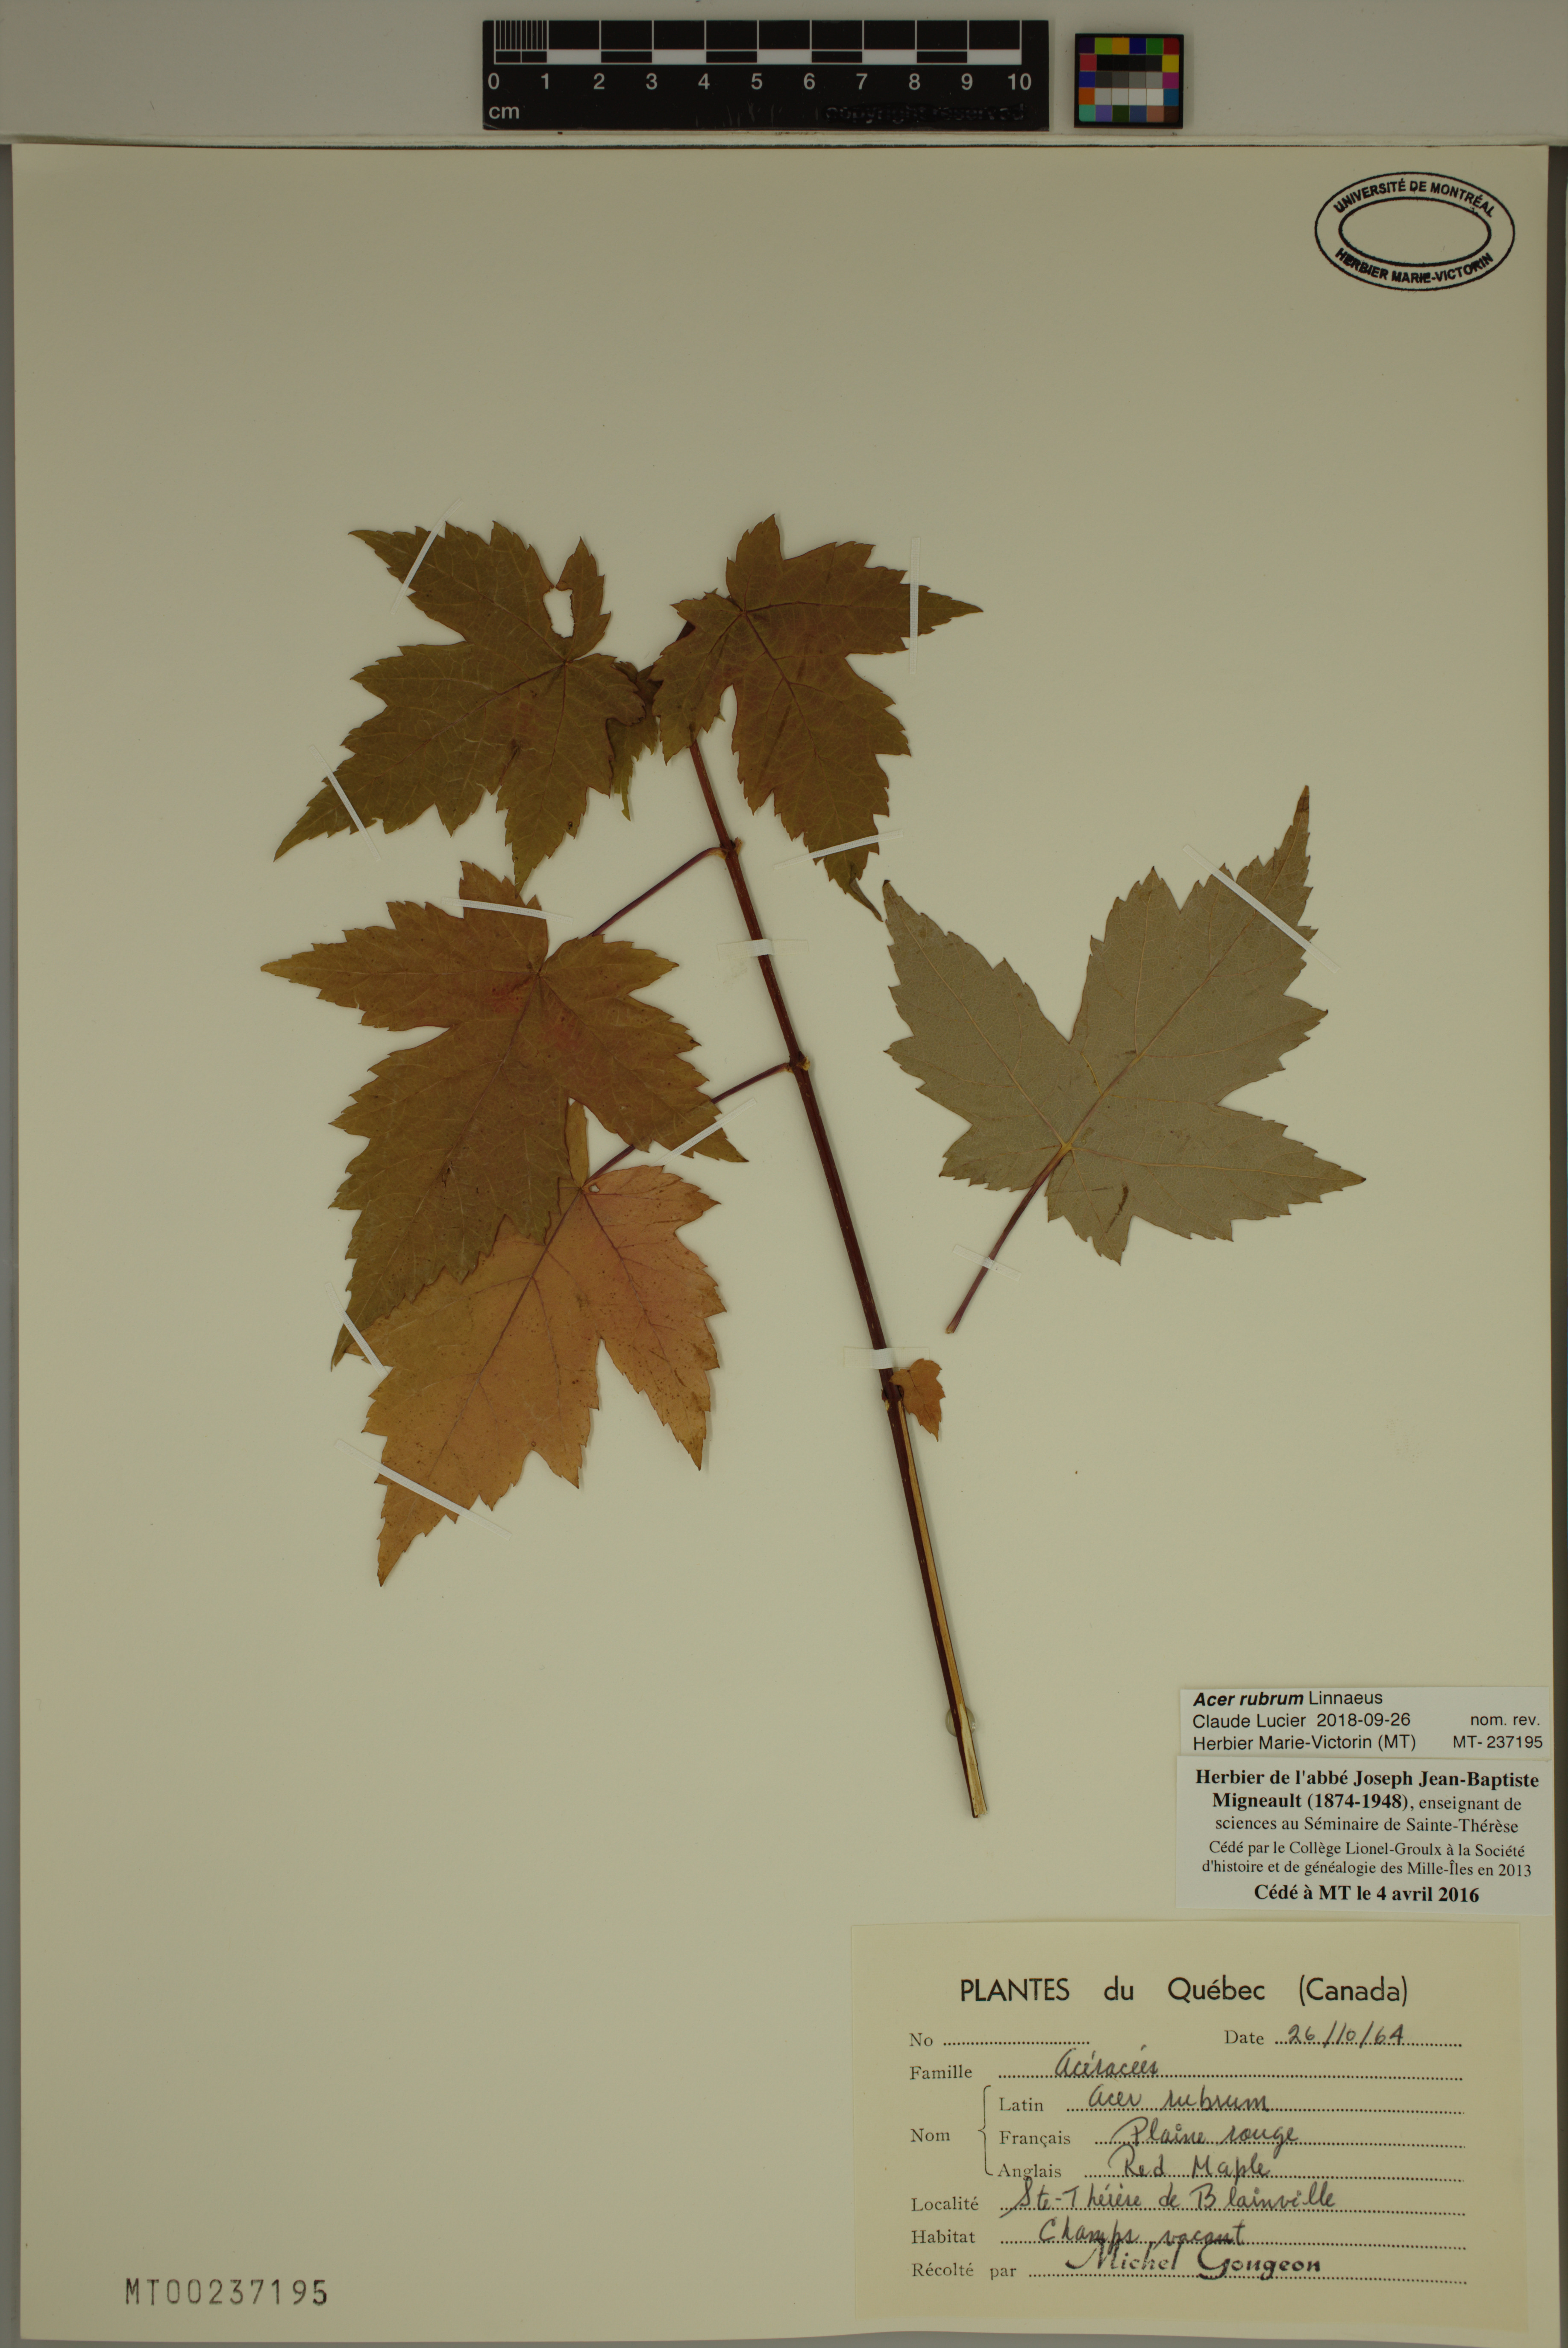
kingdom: Plantae
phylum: Tracheophyta
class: Magnoliopsida
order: Sapindales
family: Sapindaceae
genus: Acer
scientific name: Acer rubrum
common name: Red maple
